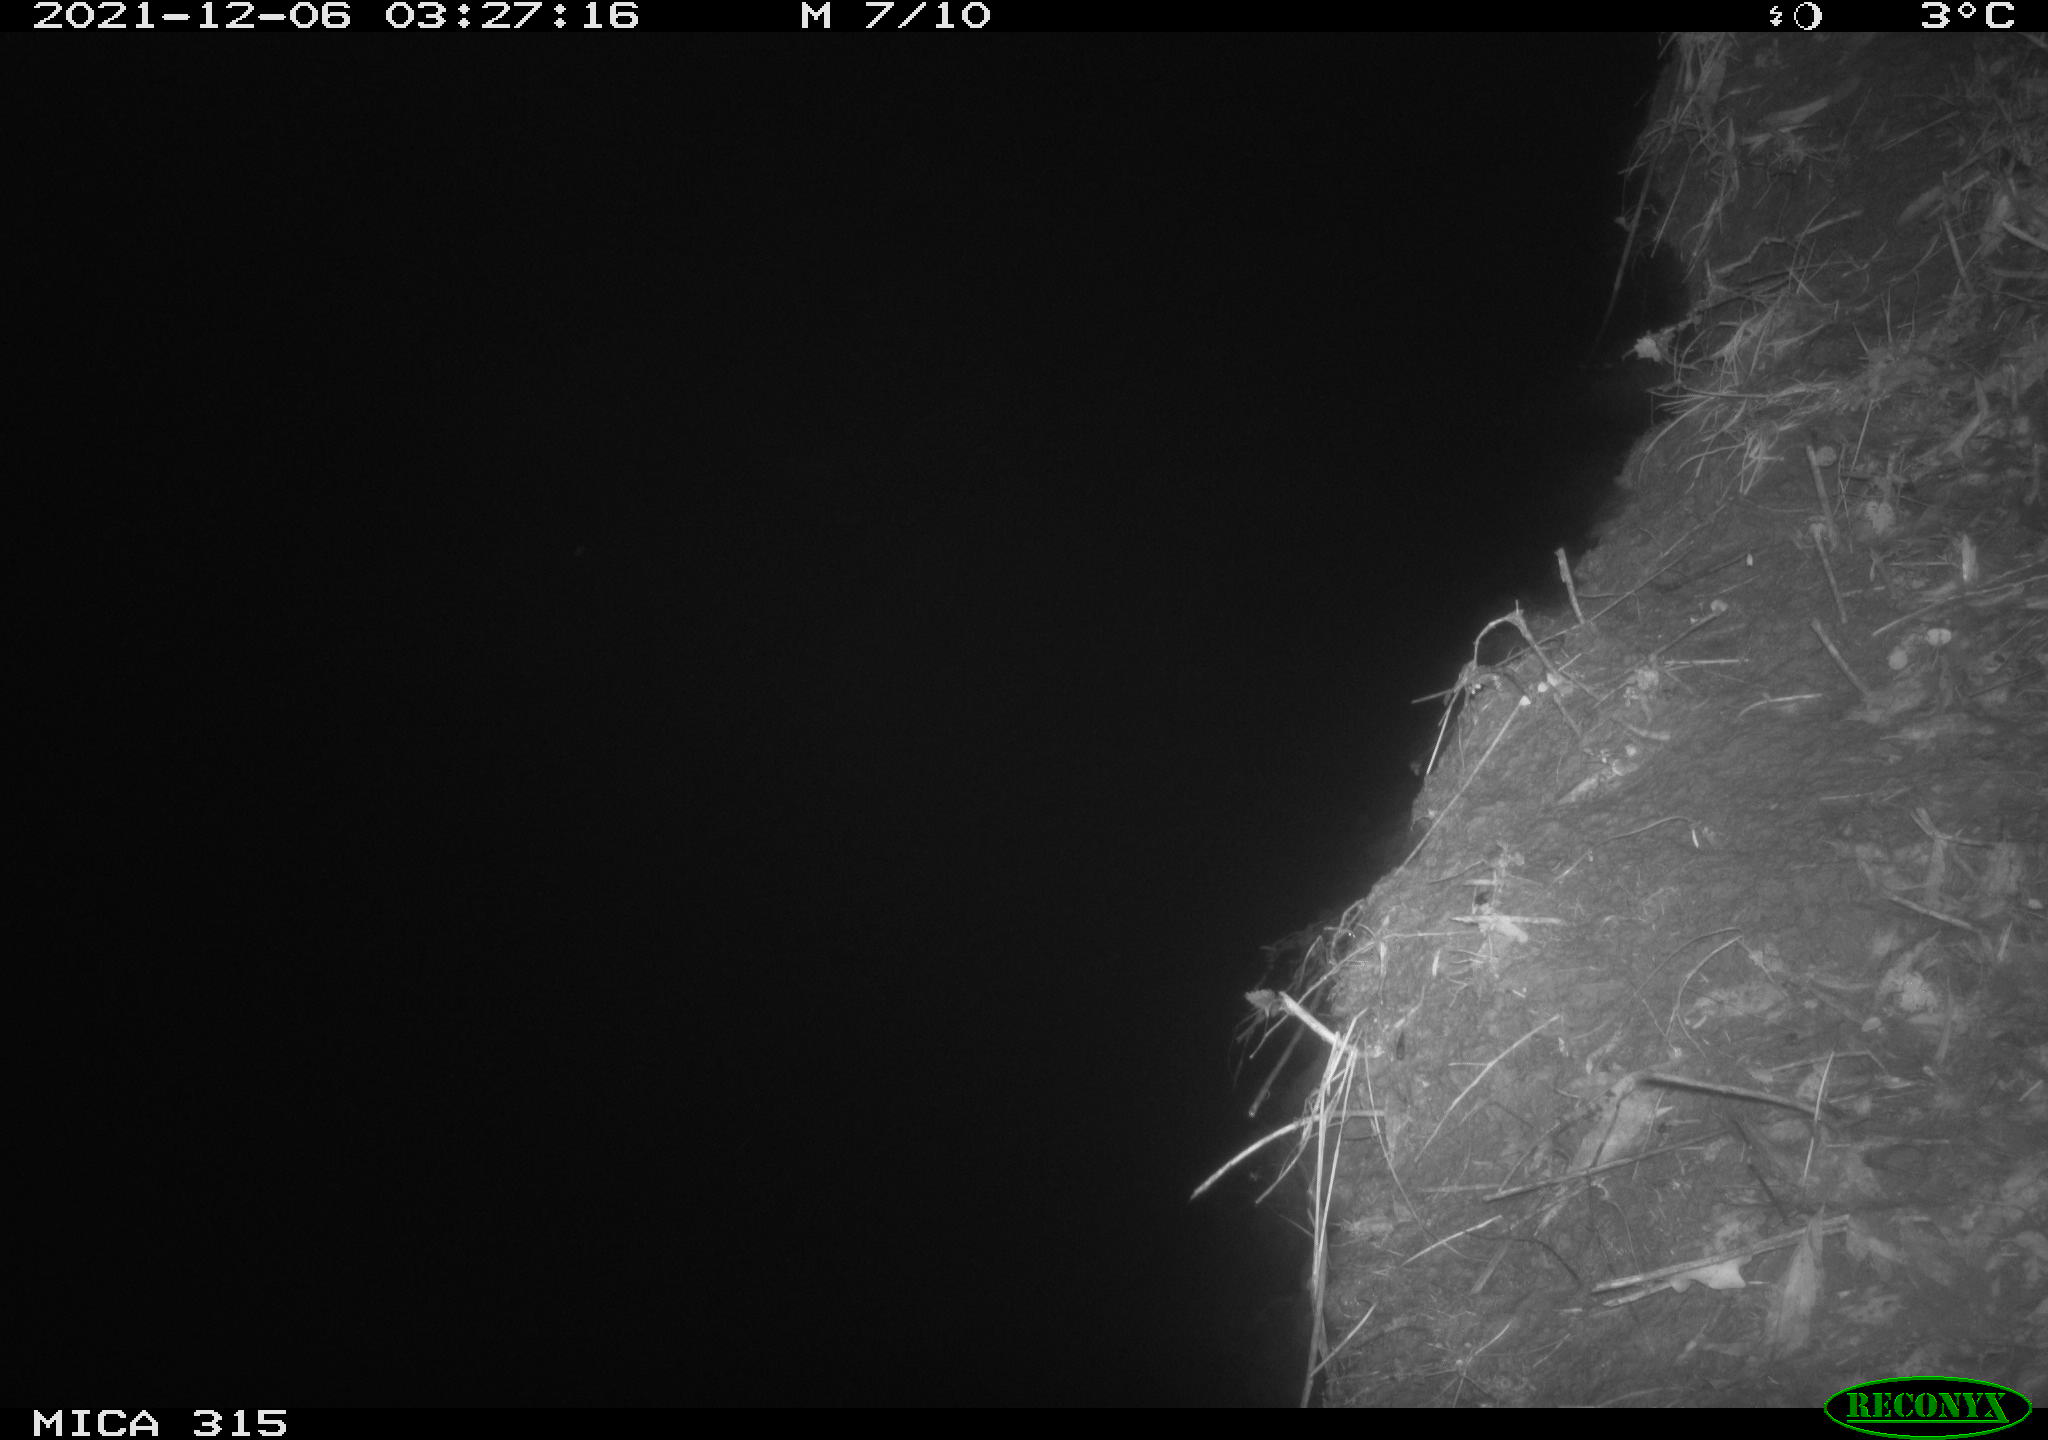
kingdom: Animalia
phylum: Chordata
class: Mammalia
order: Rodentia
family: Muridae
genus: Rattus
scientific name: Rattus norvegicus
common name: Brown rat
